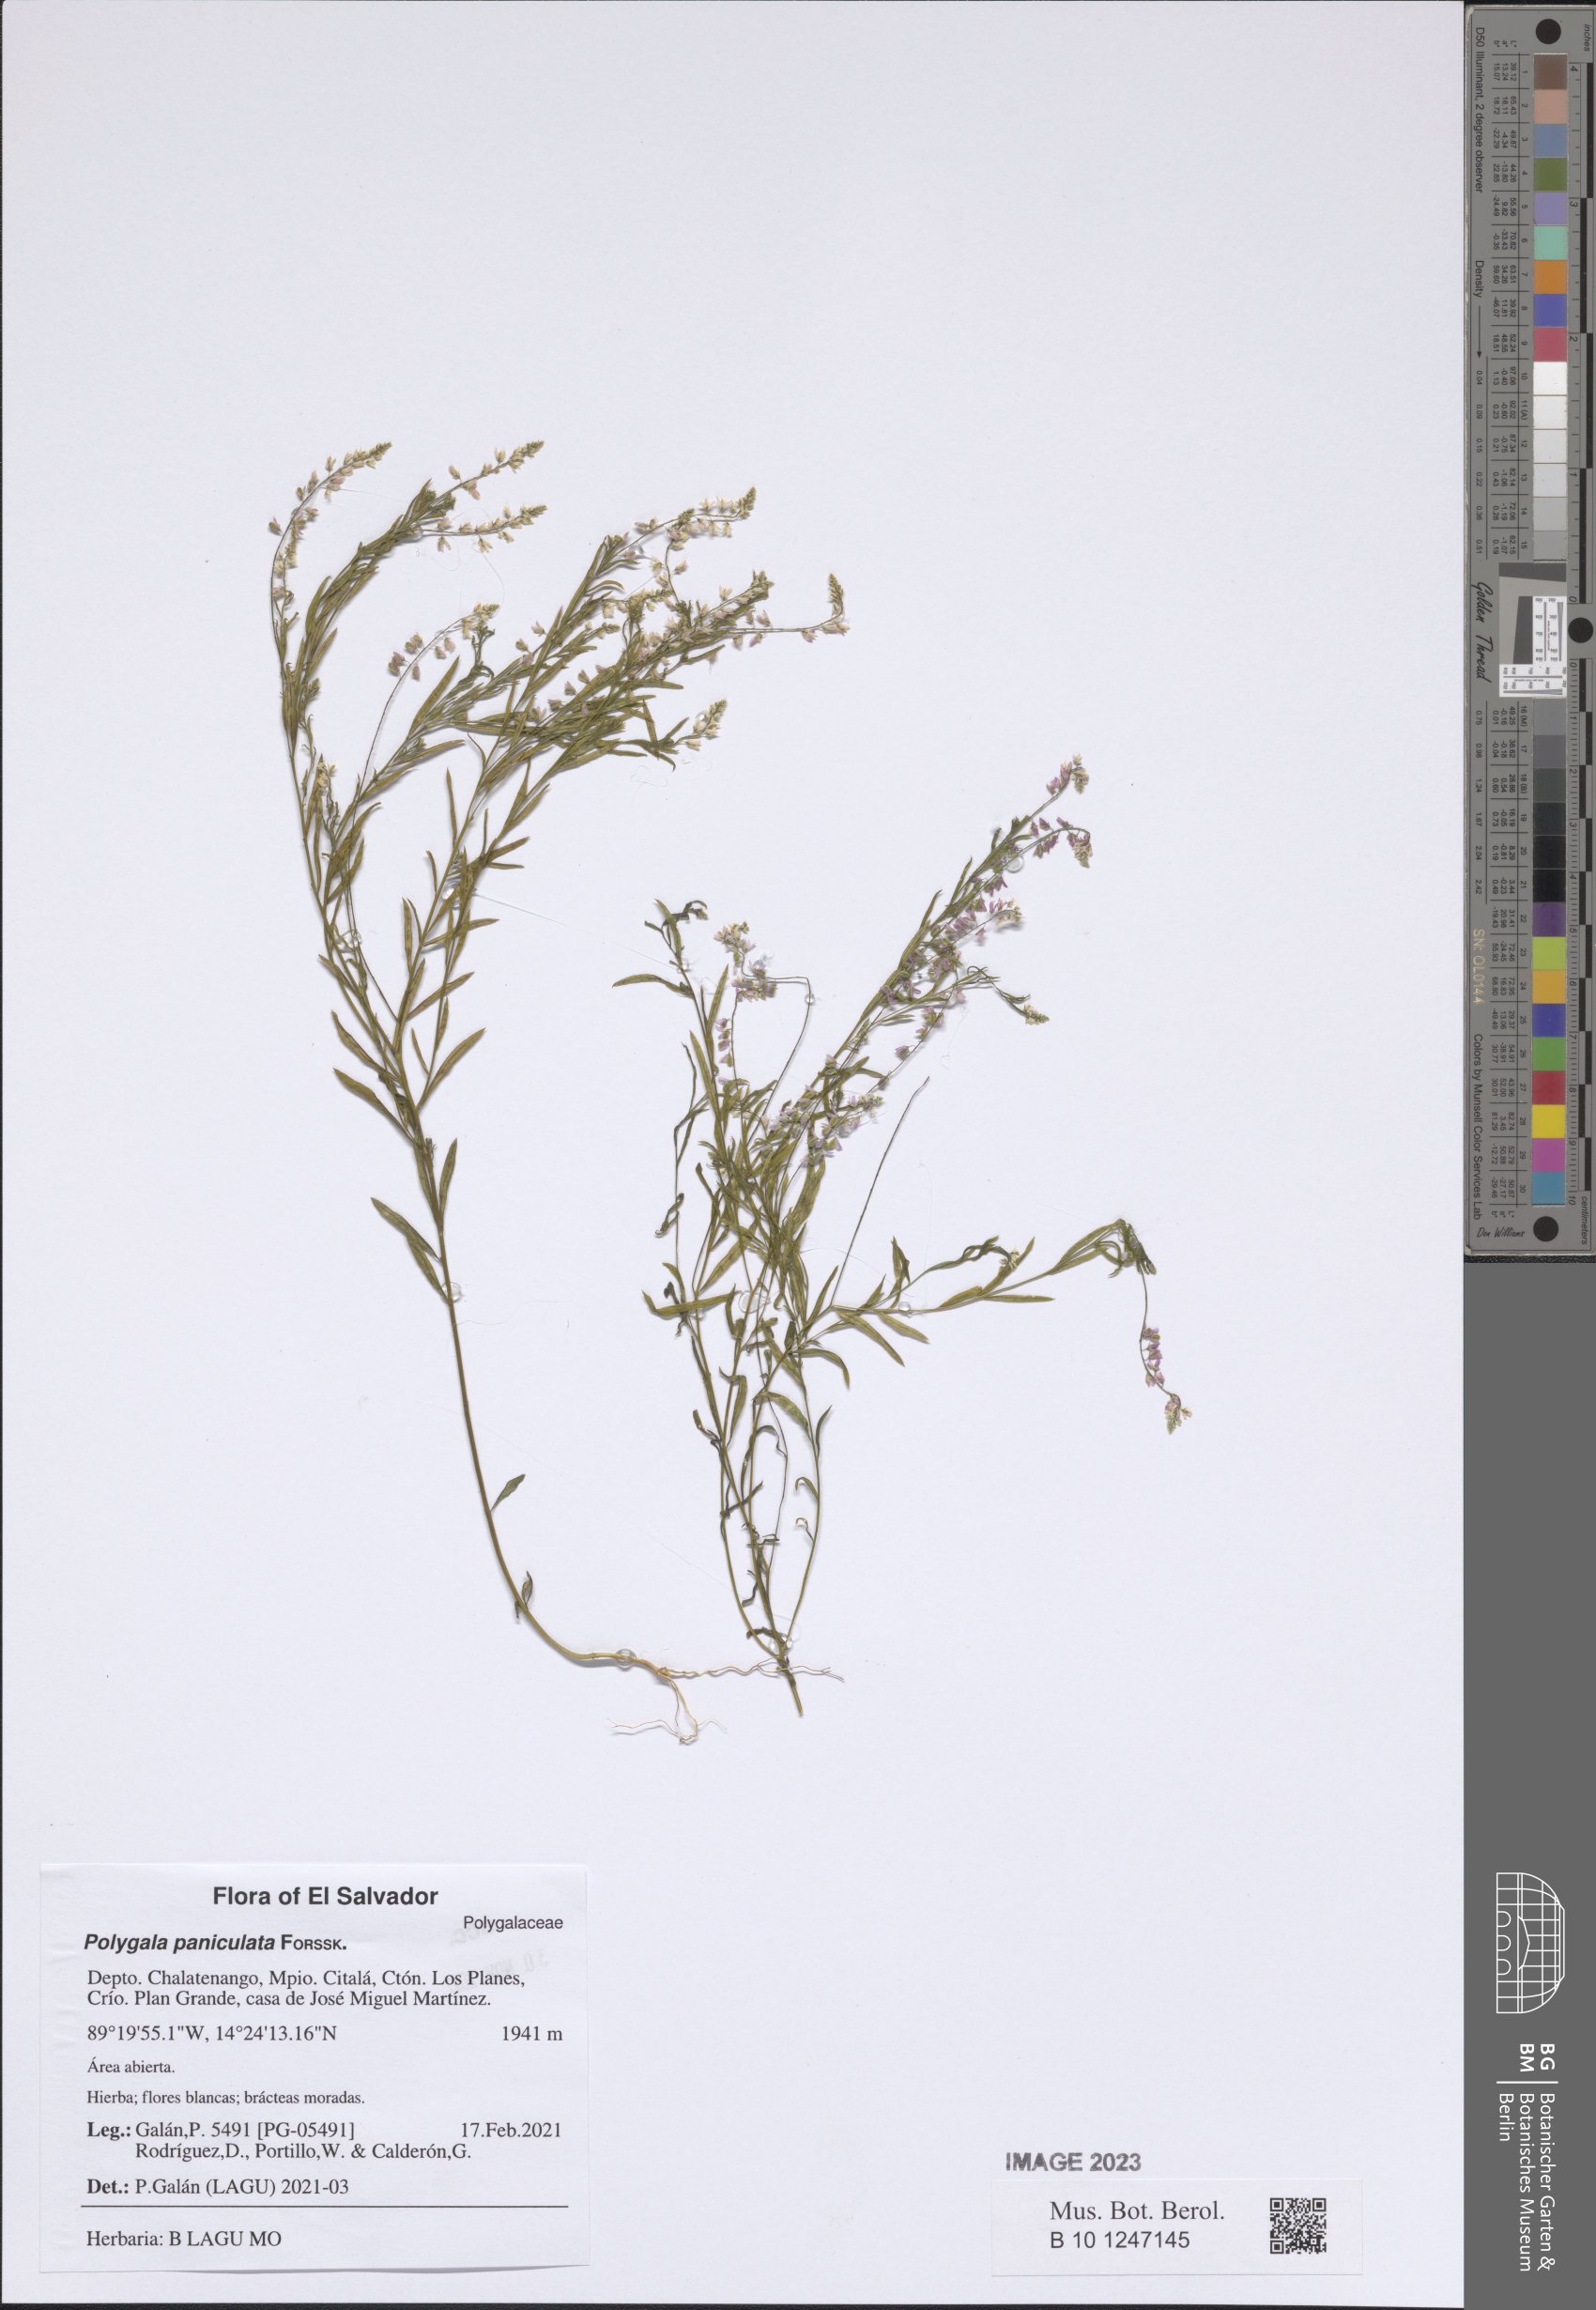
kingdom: Plantae
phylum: Tracheophyta
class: Magnoliopsida
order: Fabales
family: Polygalaceae
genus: Polygala
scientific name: Polygala exilis
